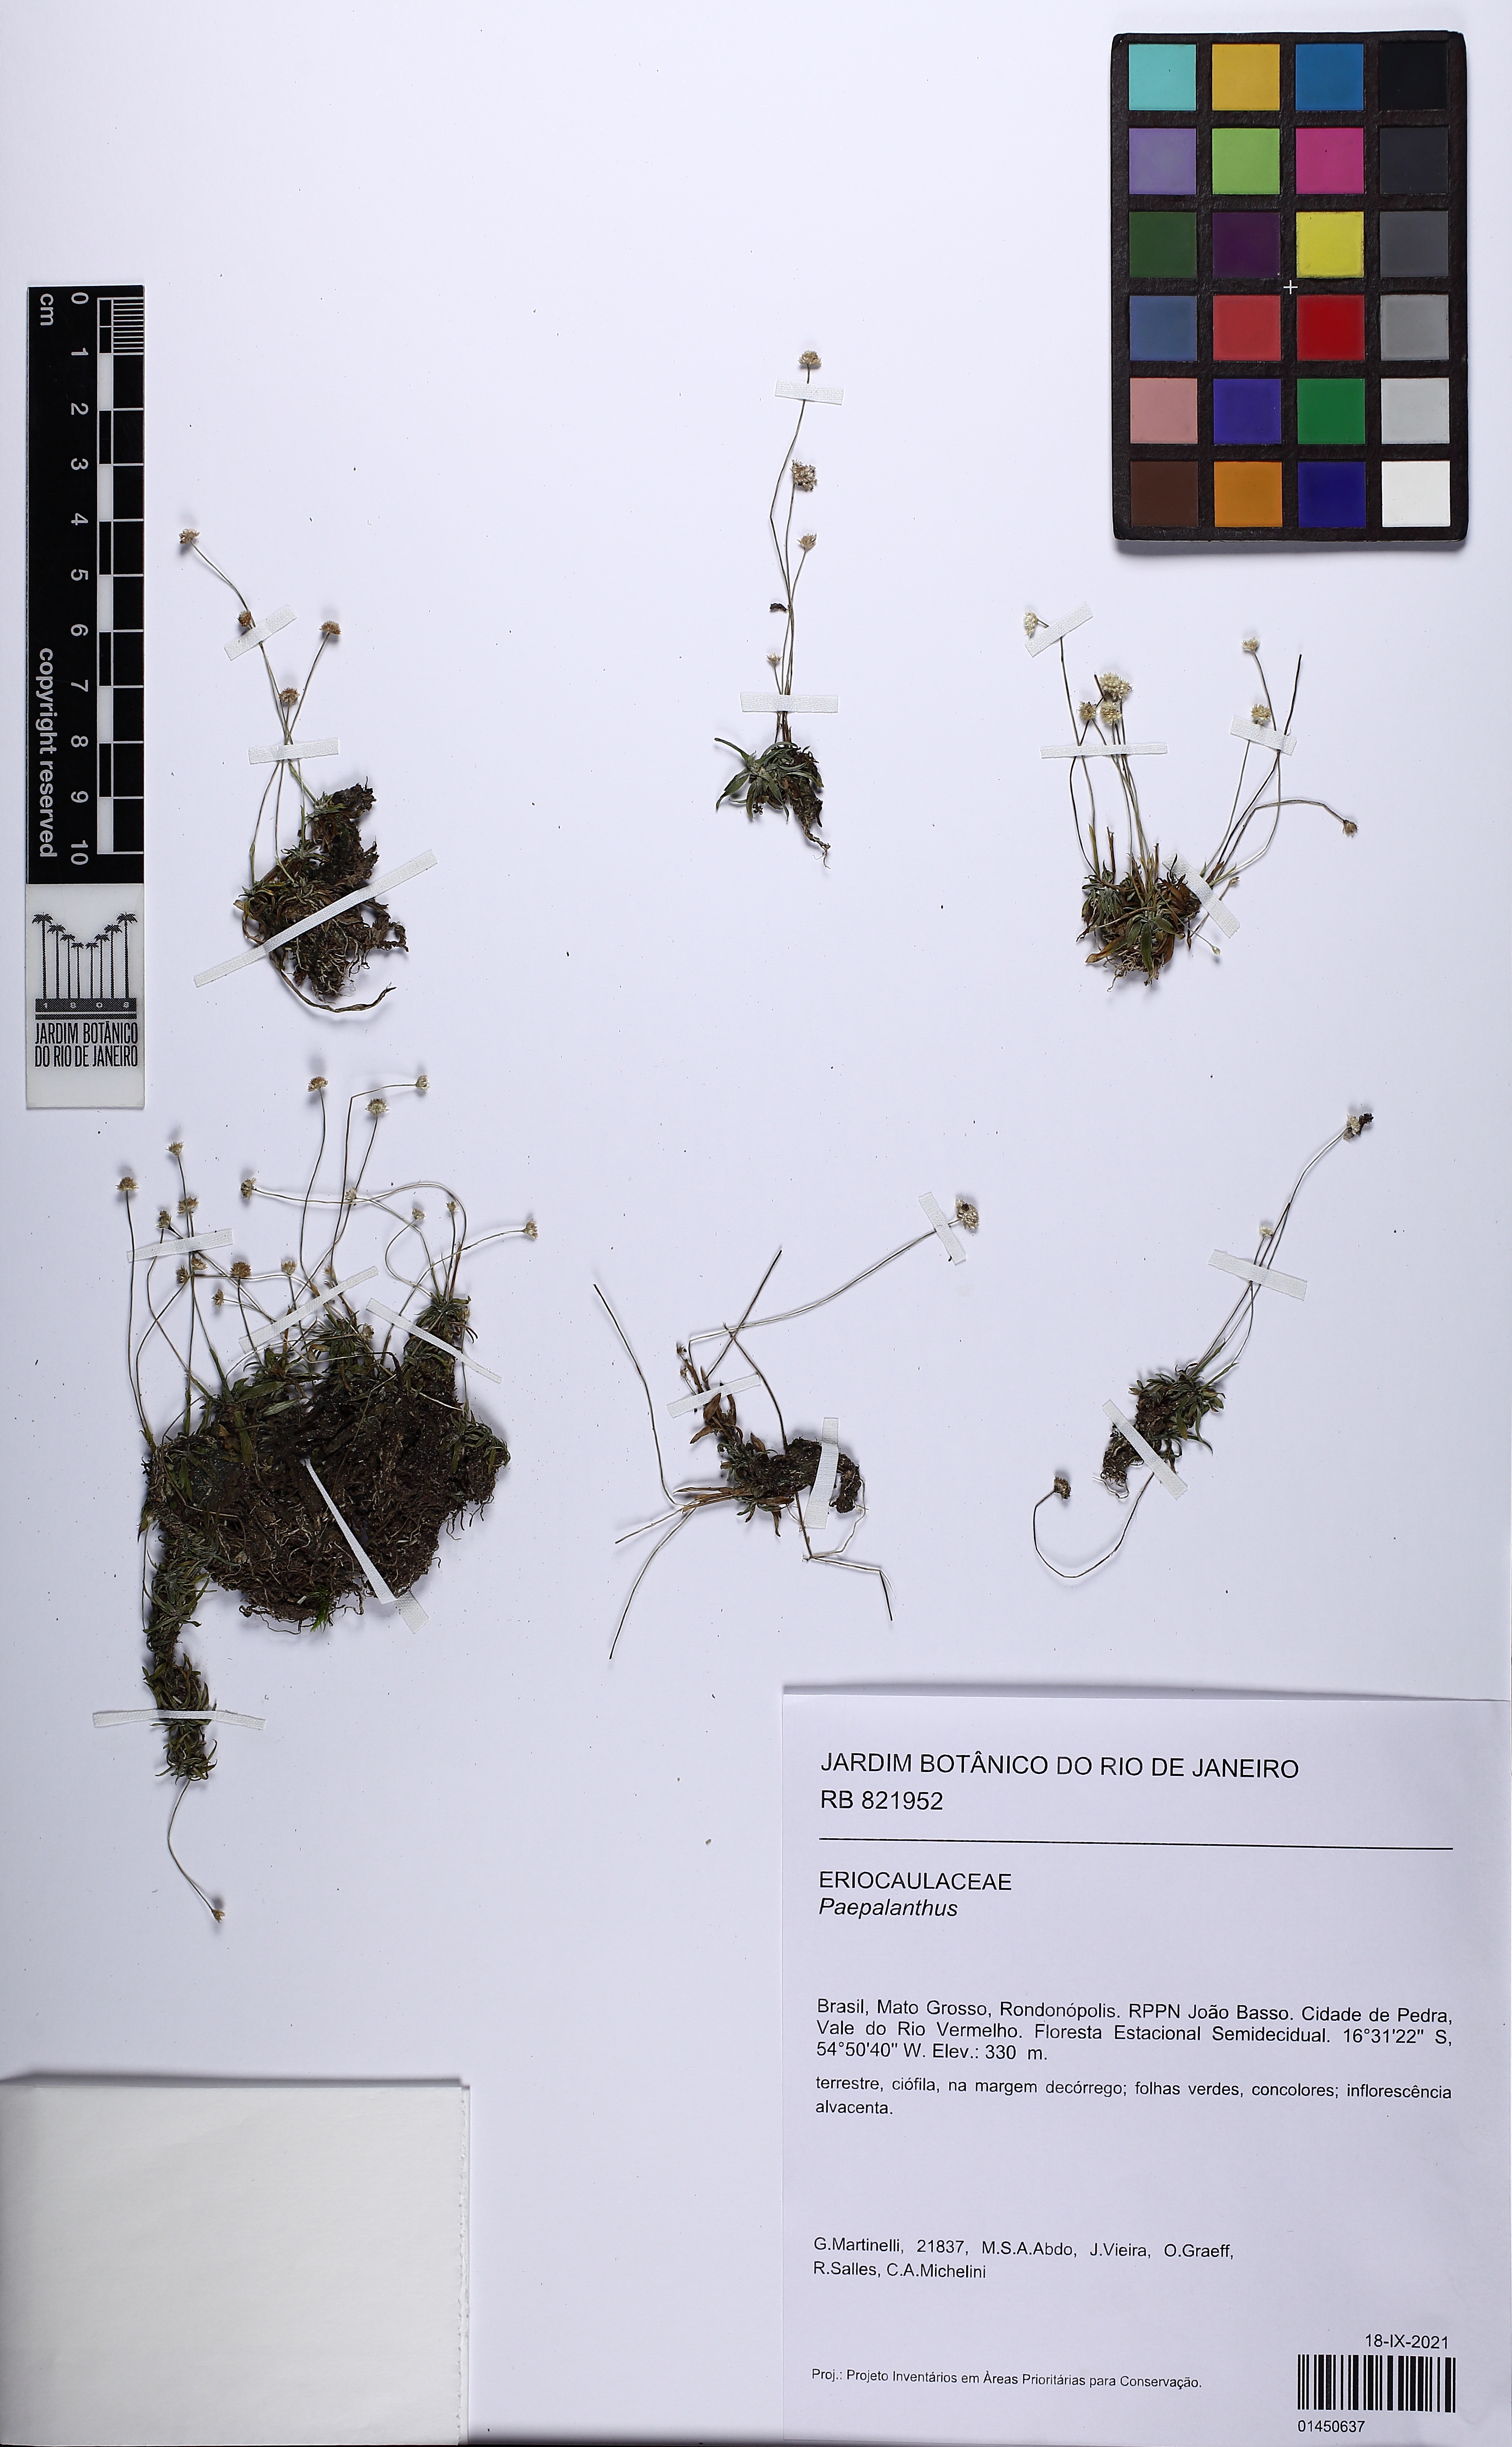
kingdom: Plantae
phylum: Tracheophyta
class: Liliopsida
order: Poales
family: Eriocaulaceae
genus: Syngonanthus
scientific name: Syngonanthus
